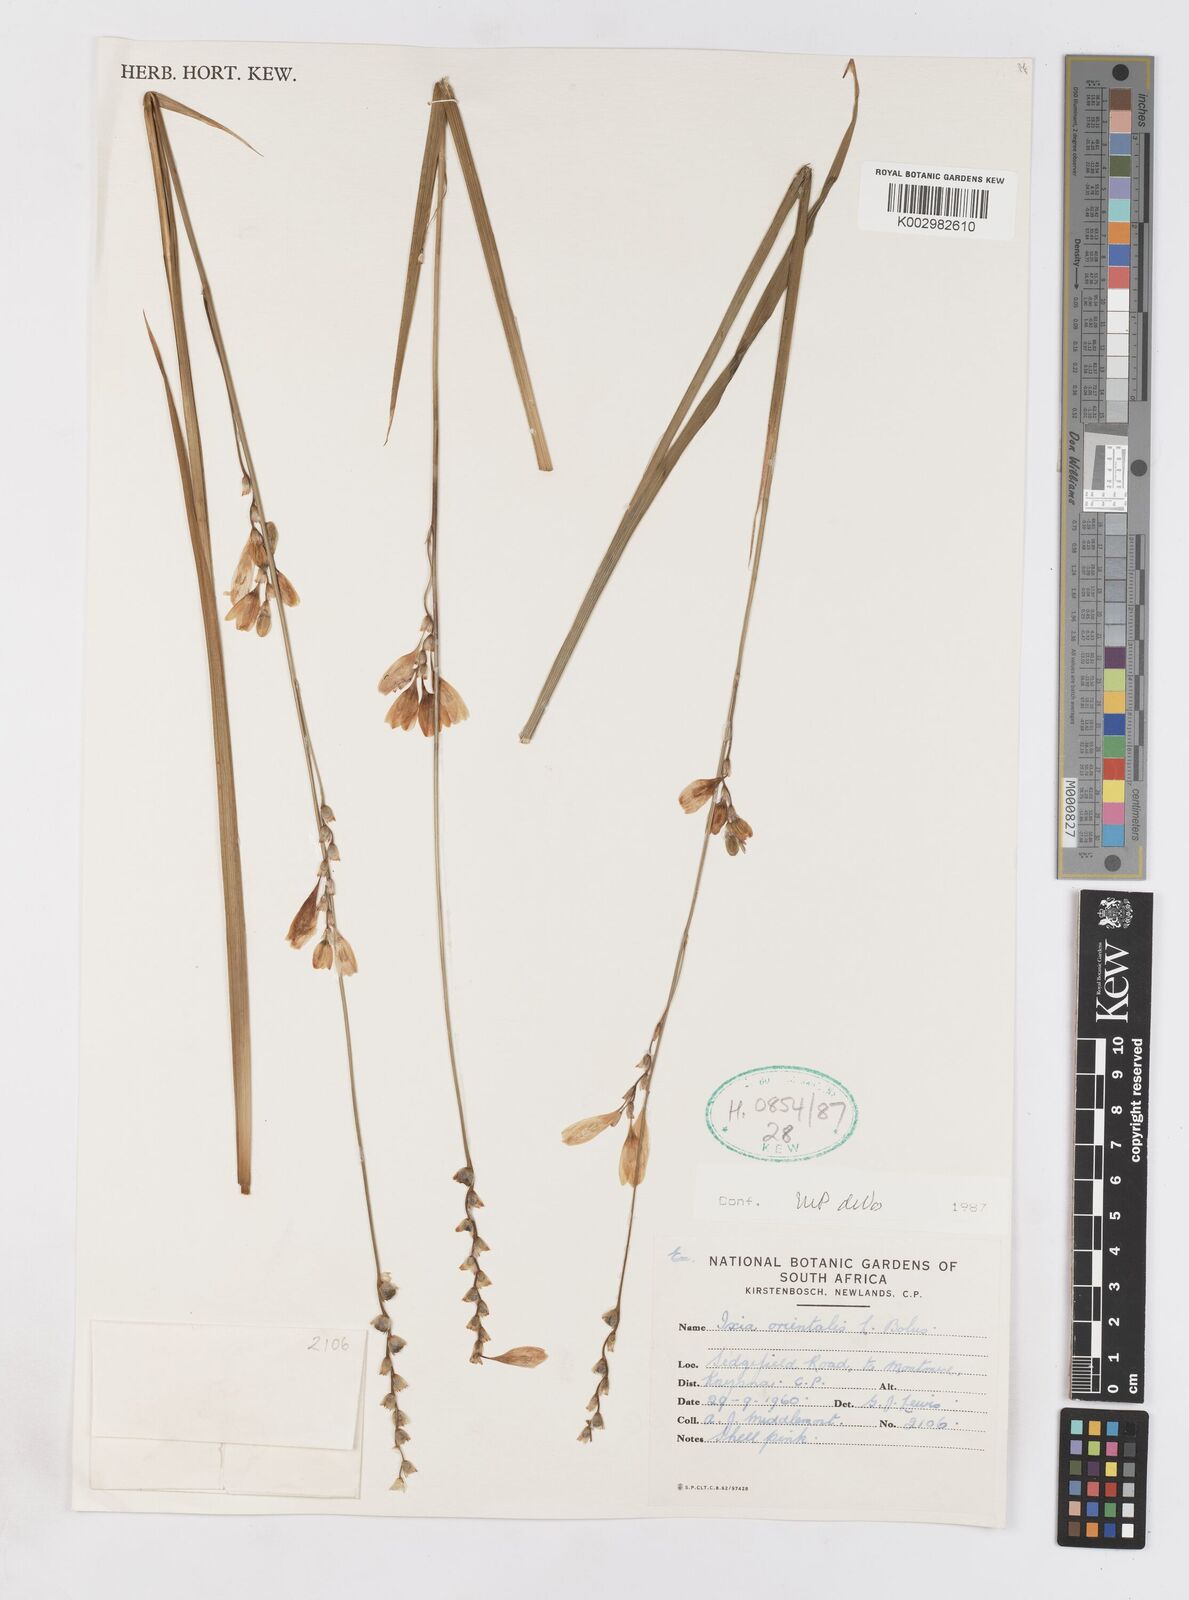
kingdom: Plantae
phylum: Tracheophyta
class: Liliopsida
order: Asparagales
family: Iridaceae
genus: Ixia
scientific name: Ixia orientalis
